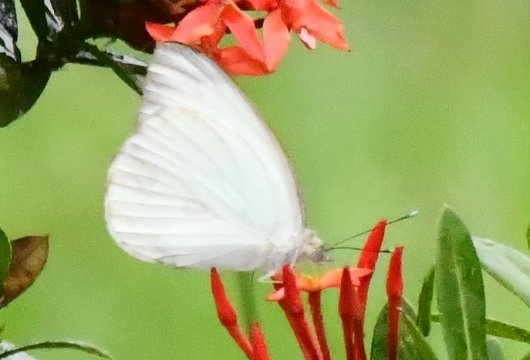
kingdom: Animalia
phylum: Arthropoda
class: Insecta
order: Lepidoptera
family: Pieridae
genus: Ascia
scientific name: Ascia monuste
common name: Great Southern White
